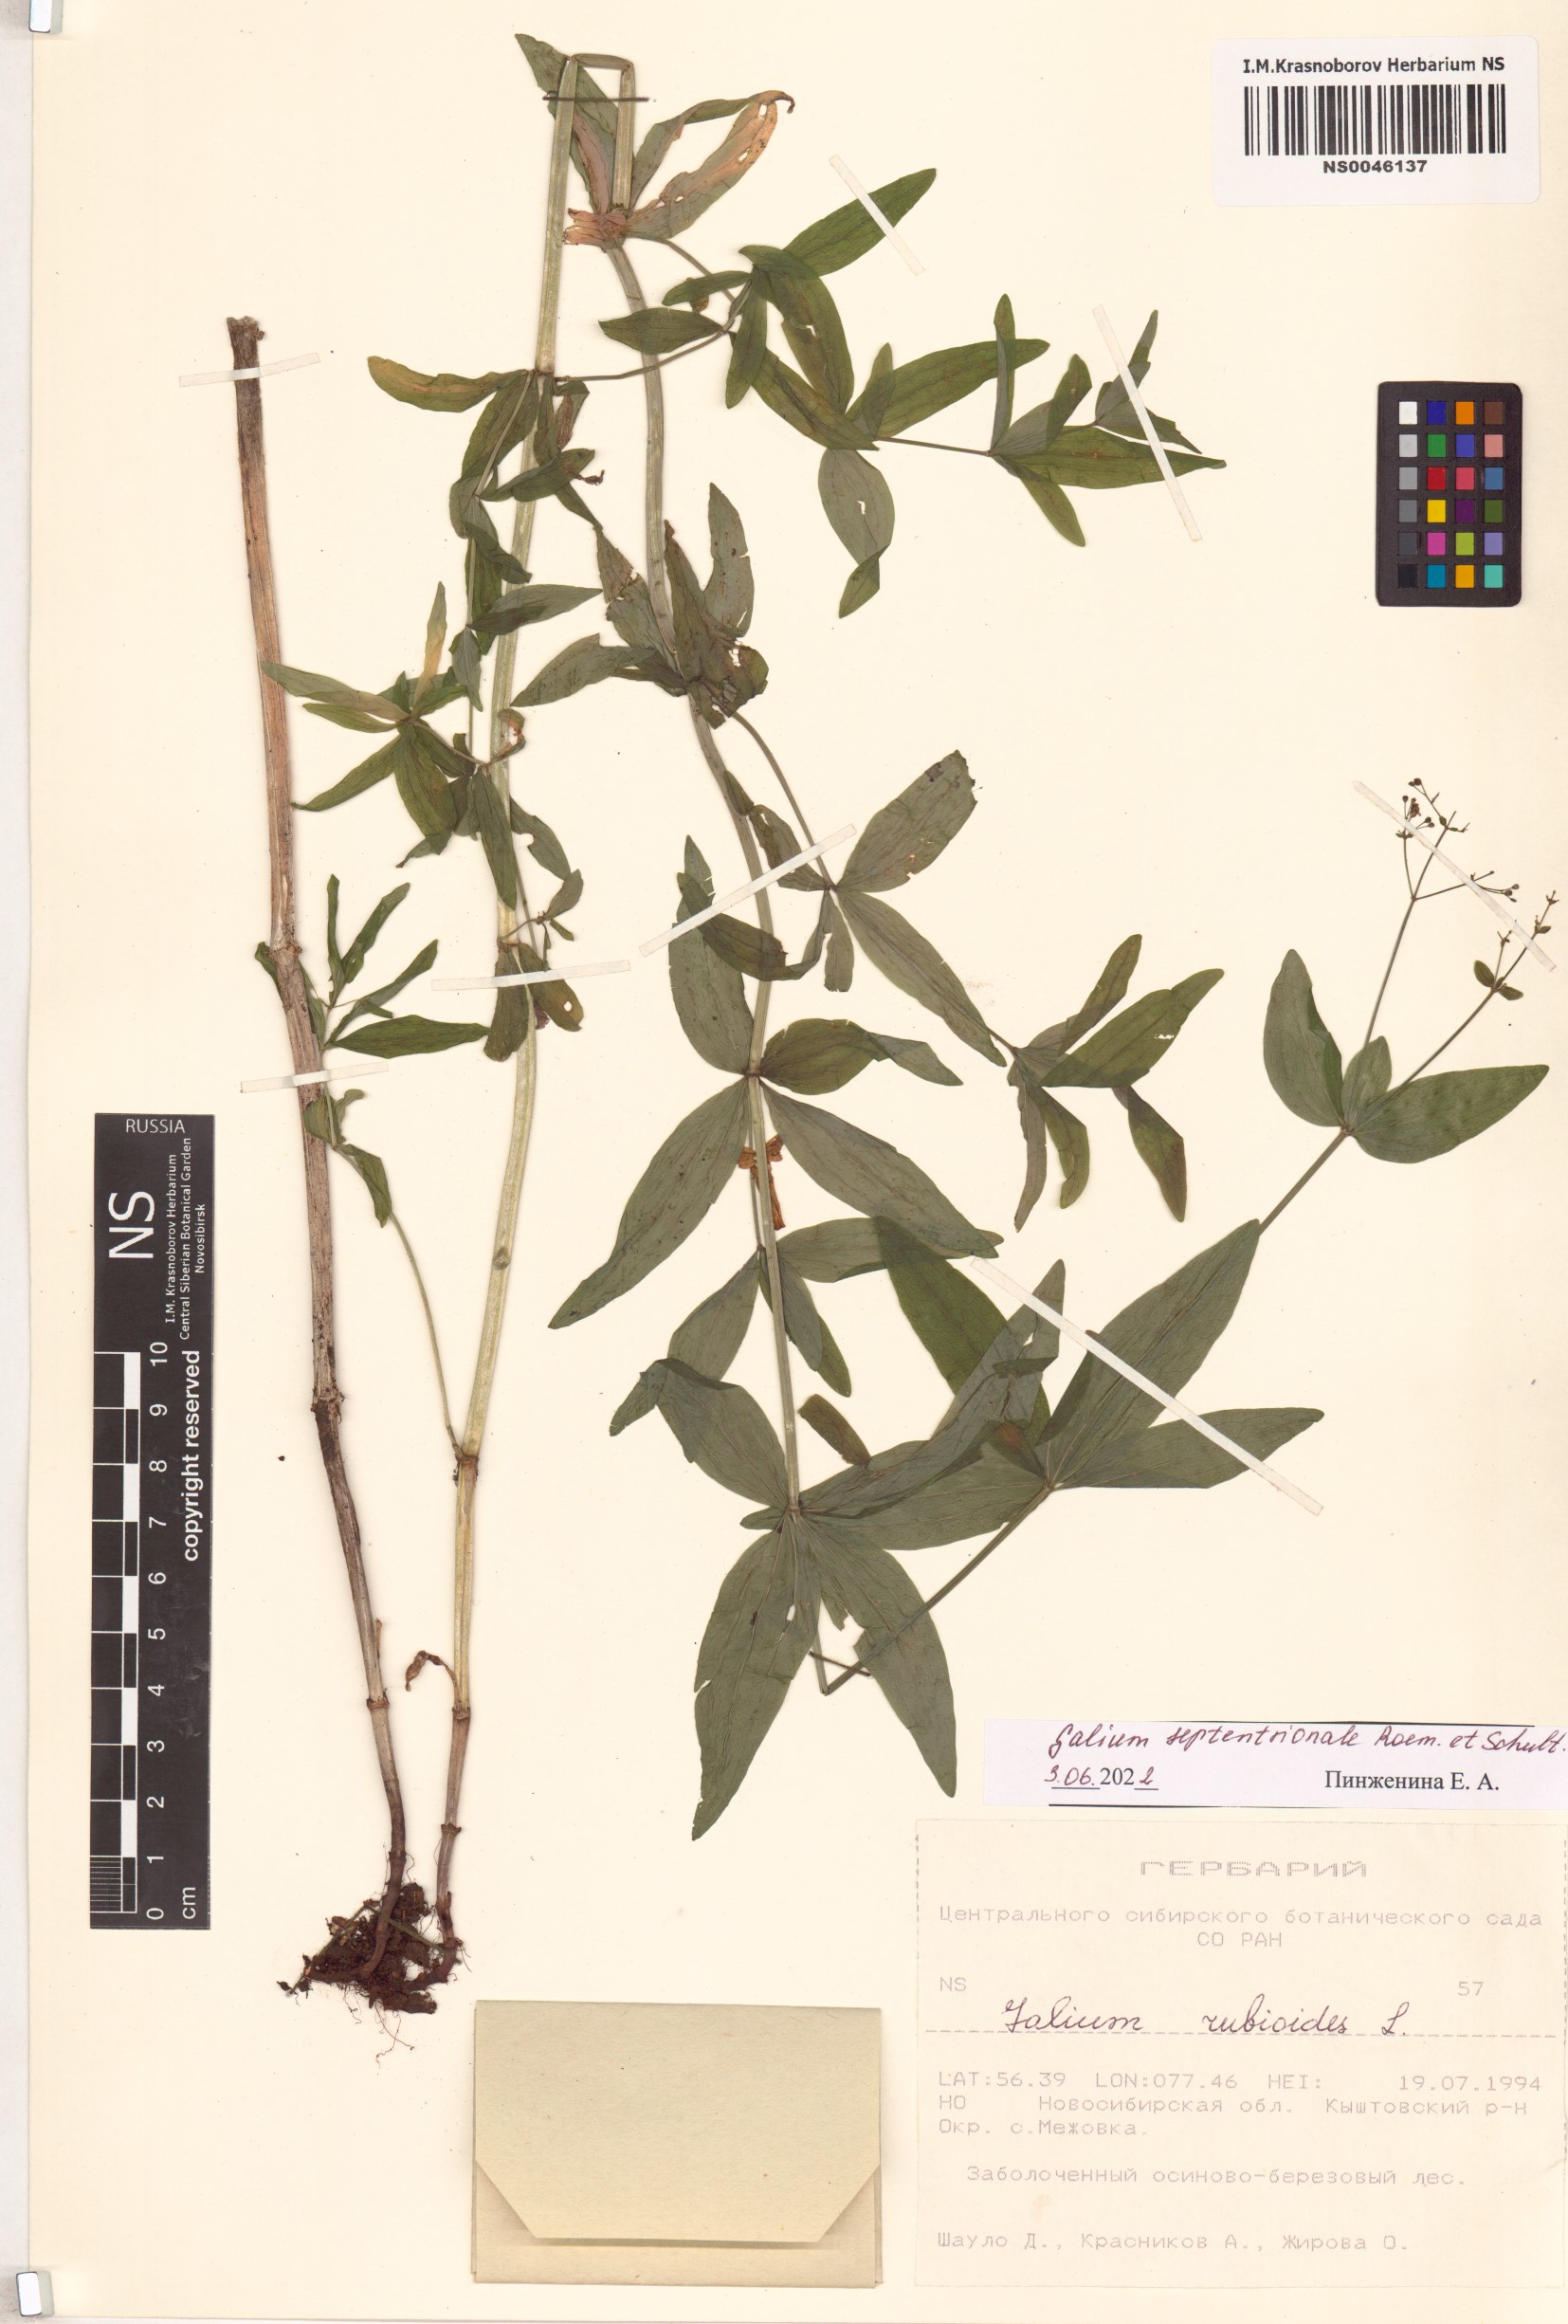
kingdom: Plantae
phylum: Tracheophyta
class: Magnoliopsida
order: Gentianales
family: Rubiaceae
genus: Galium
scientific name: Galium boreale
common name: Northern bedstraw
